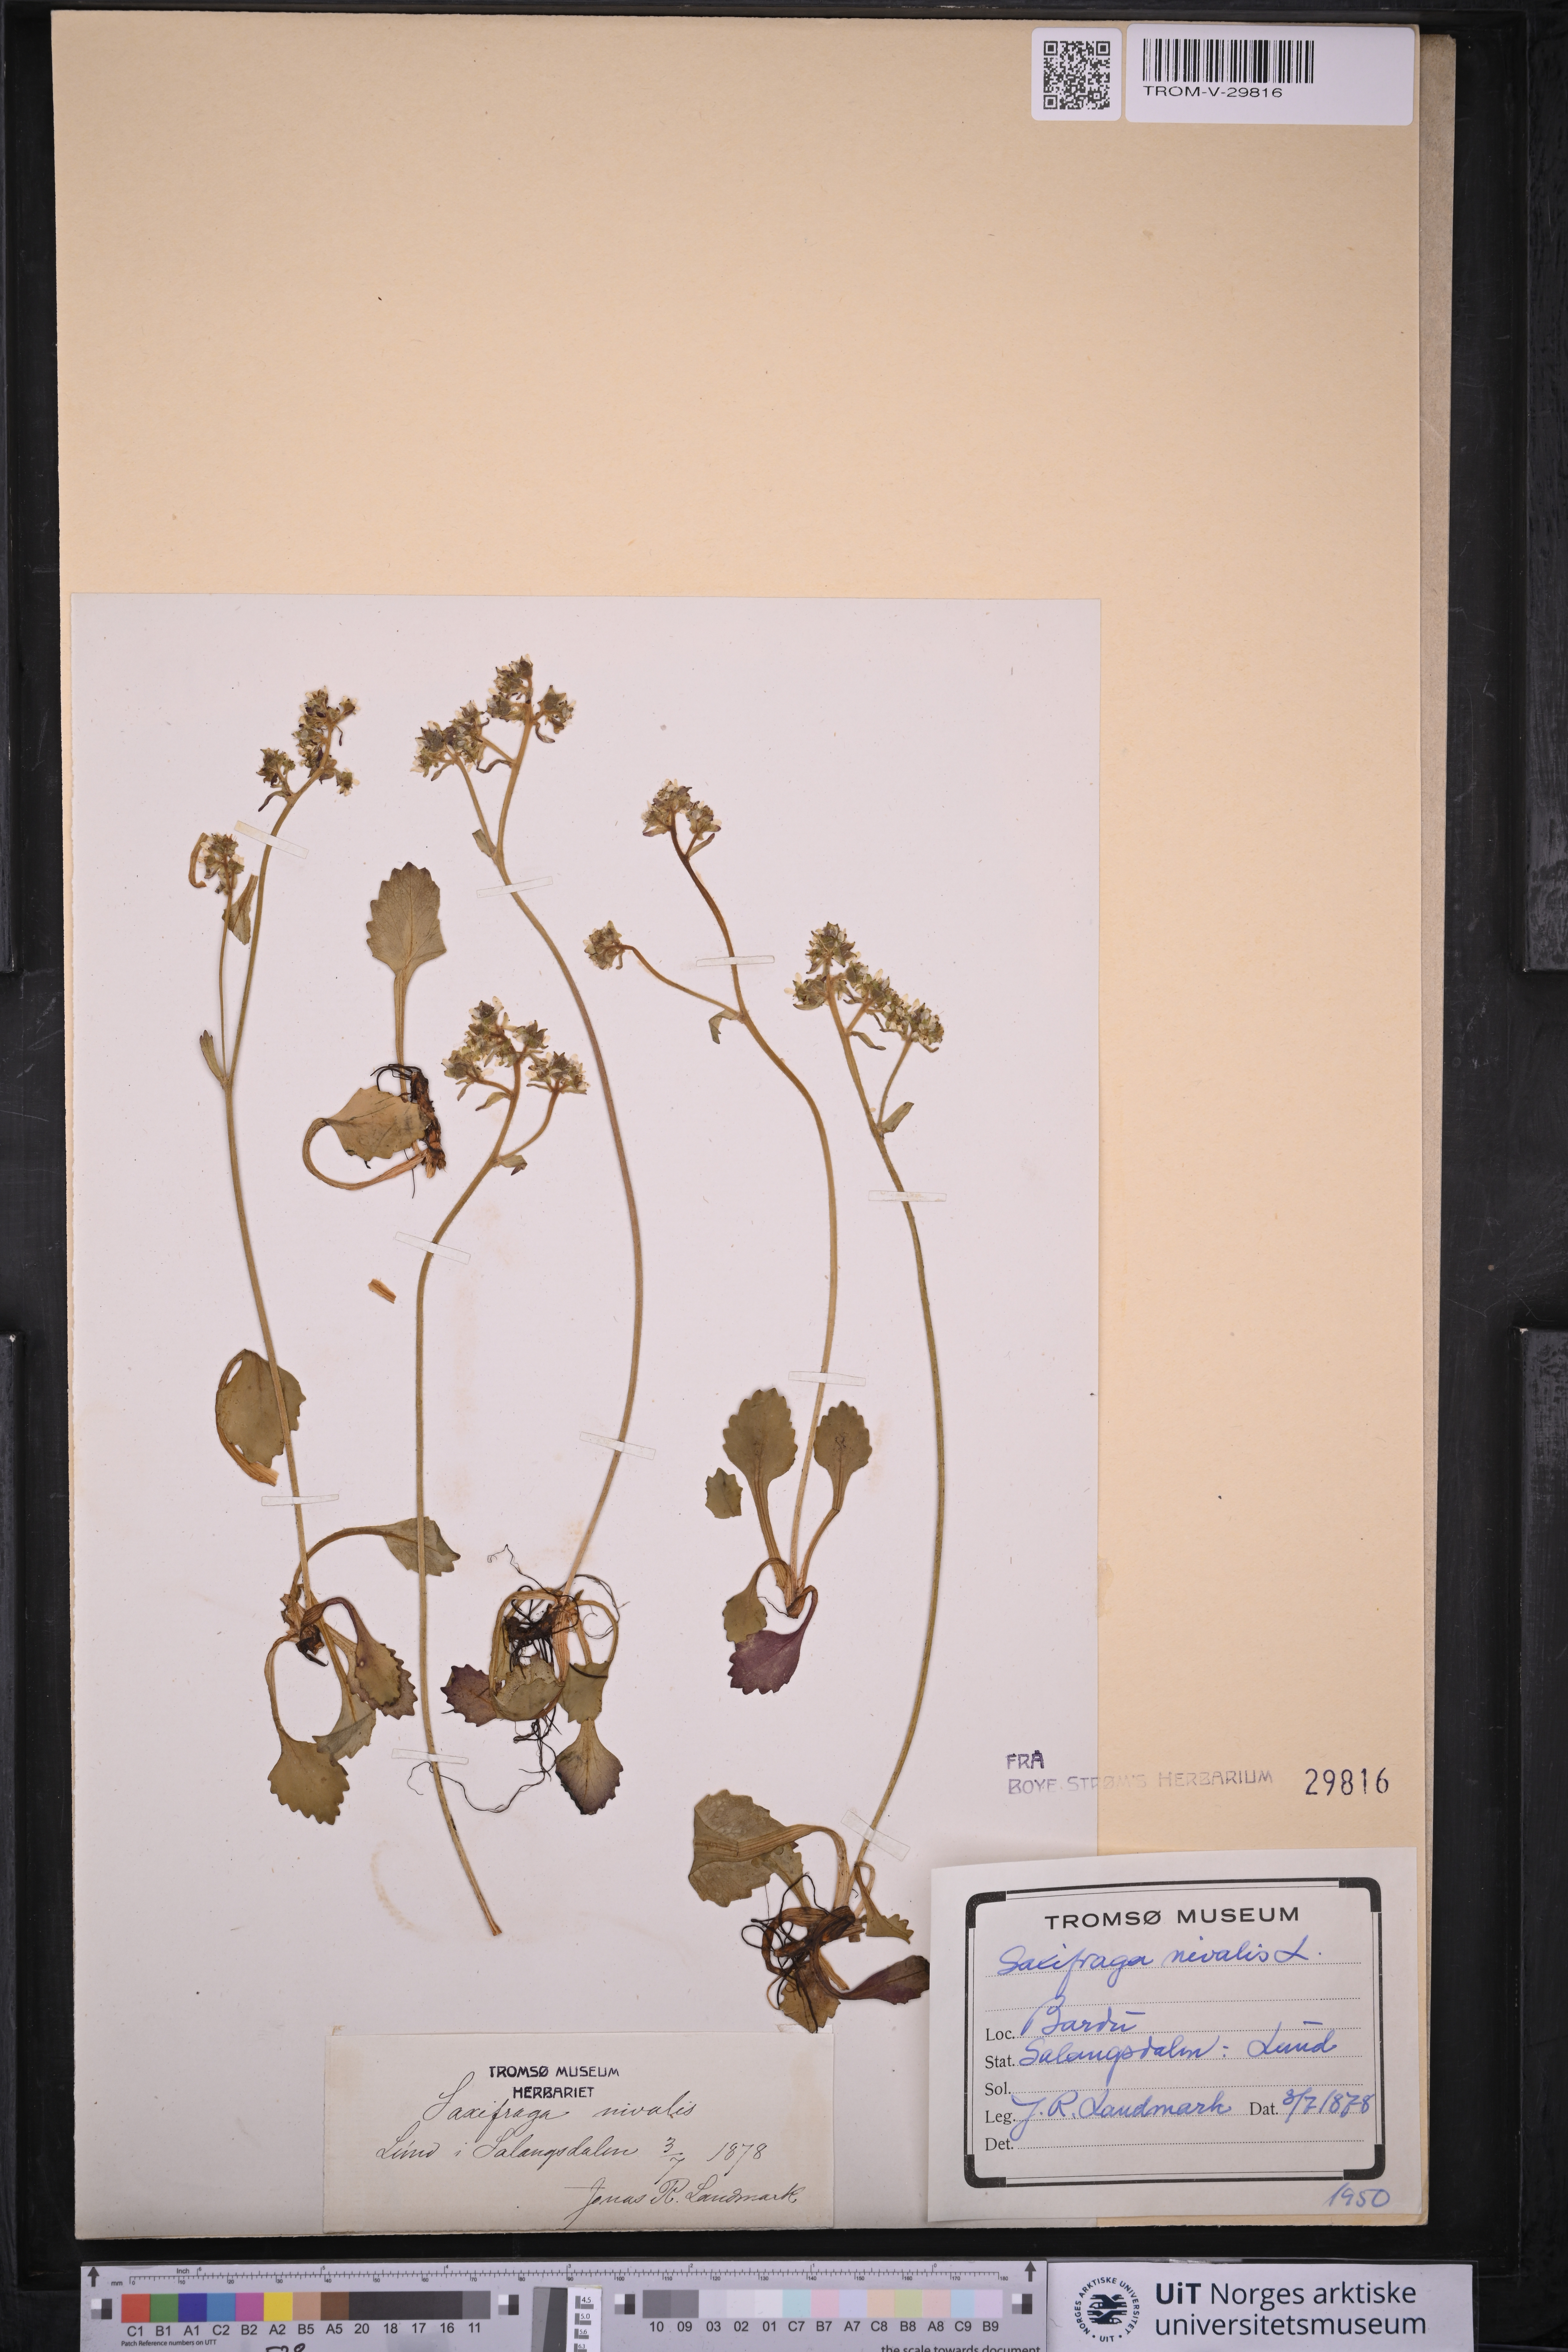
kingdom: Plantae
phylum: Tracheophyta
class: Magnoliopsida
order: Saxifragales
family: Saxifragaceae
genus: Micranthes
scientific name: Micranthes nivalis
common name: Alpine saxifrage
